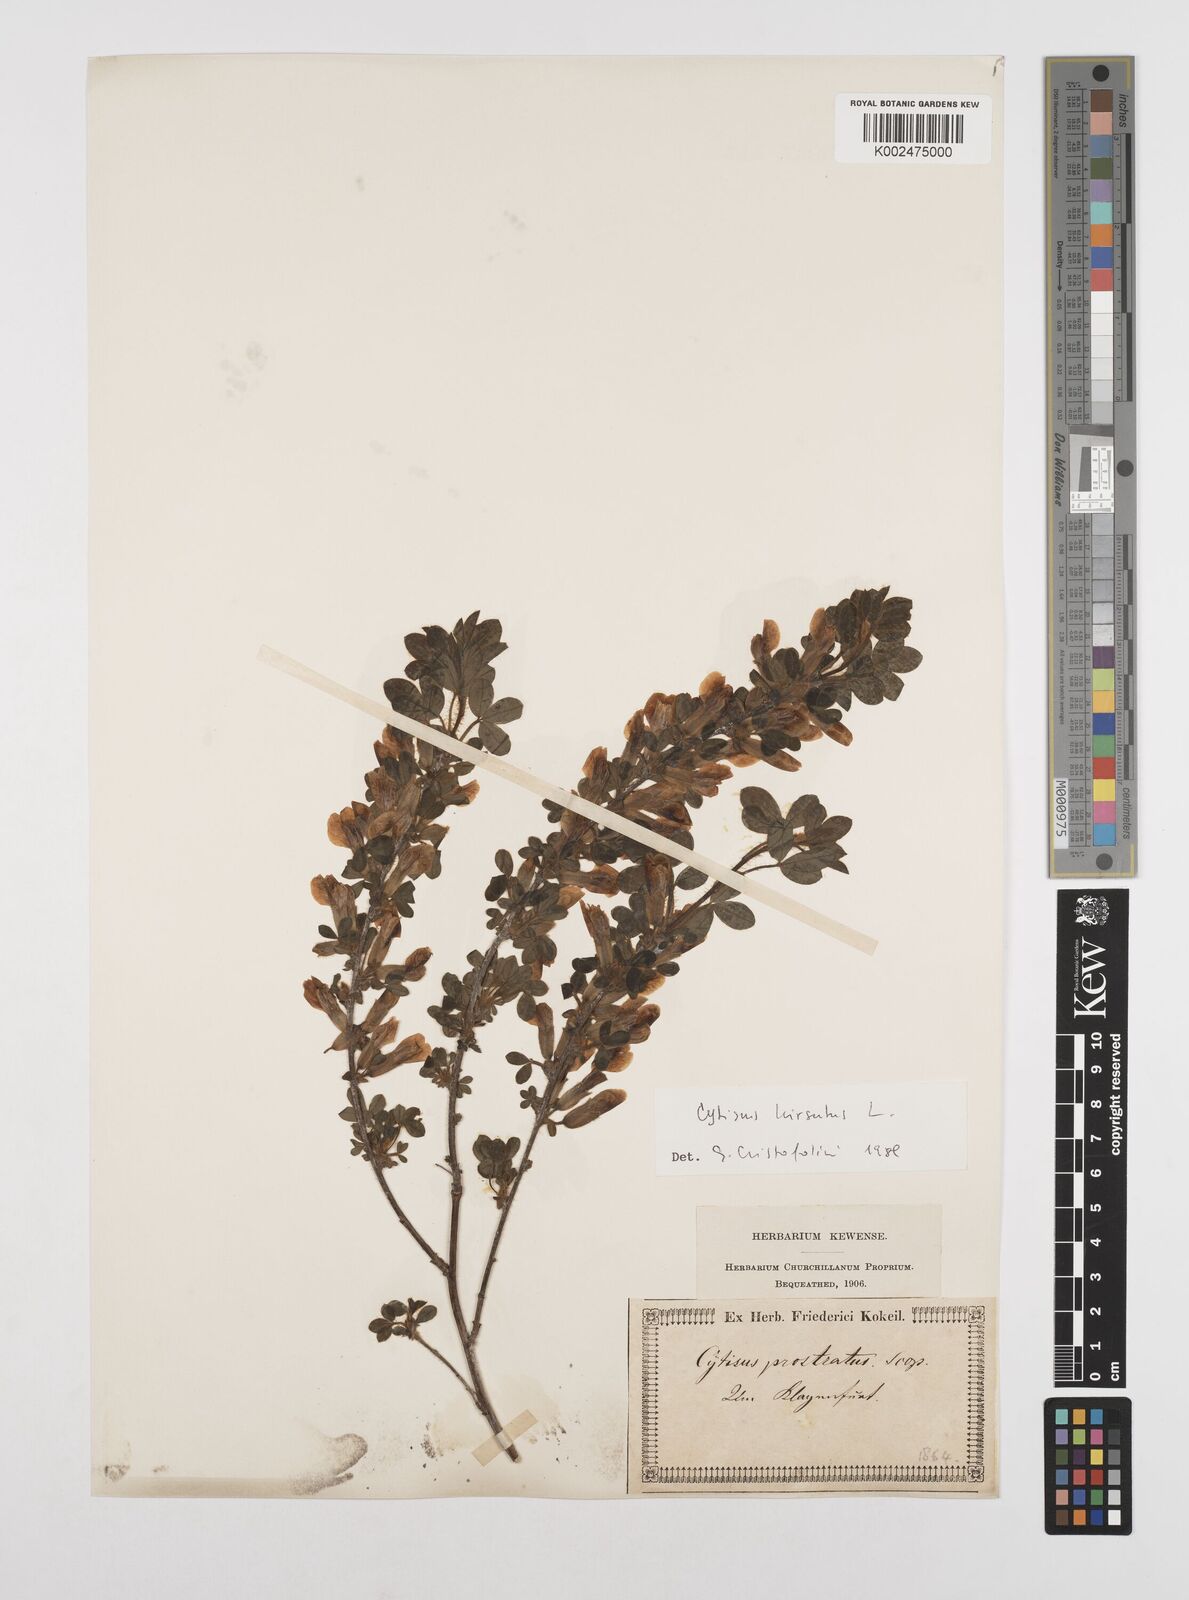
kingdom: Plantae
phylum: Tracheophyta
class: Magnoliopsida
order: Fabales
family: Fabaceae
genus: Chamaecytisus
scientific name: Chamaecytisus hirsutus
